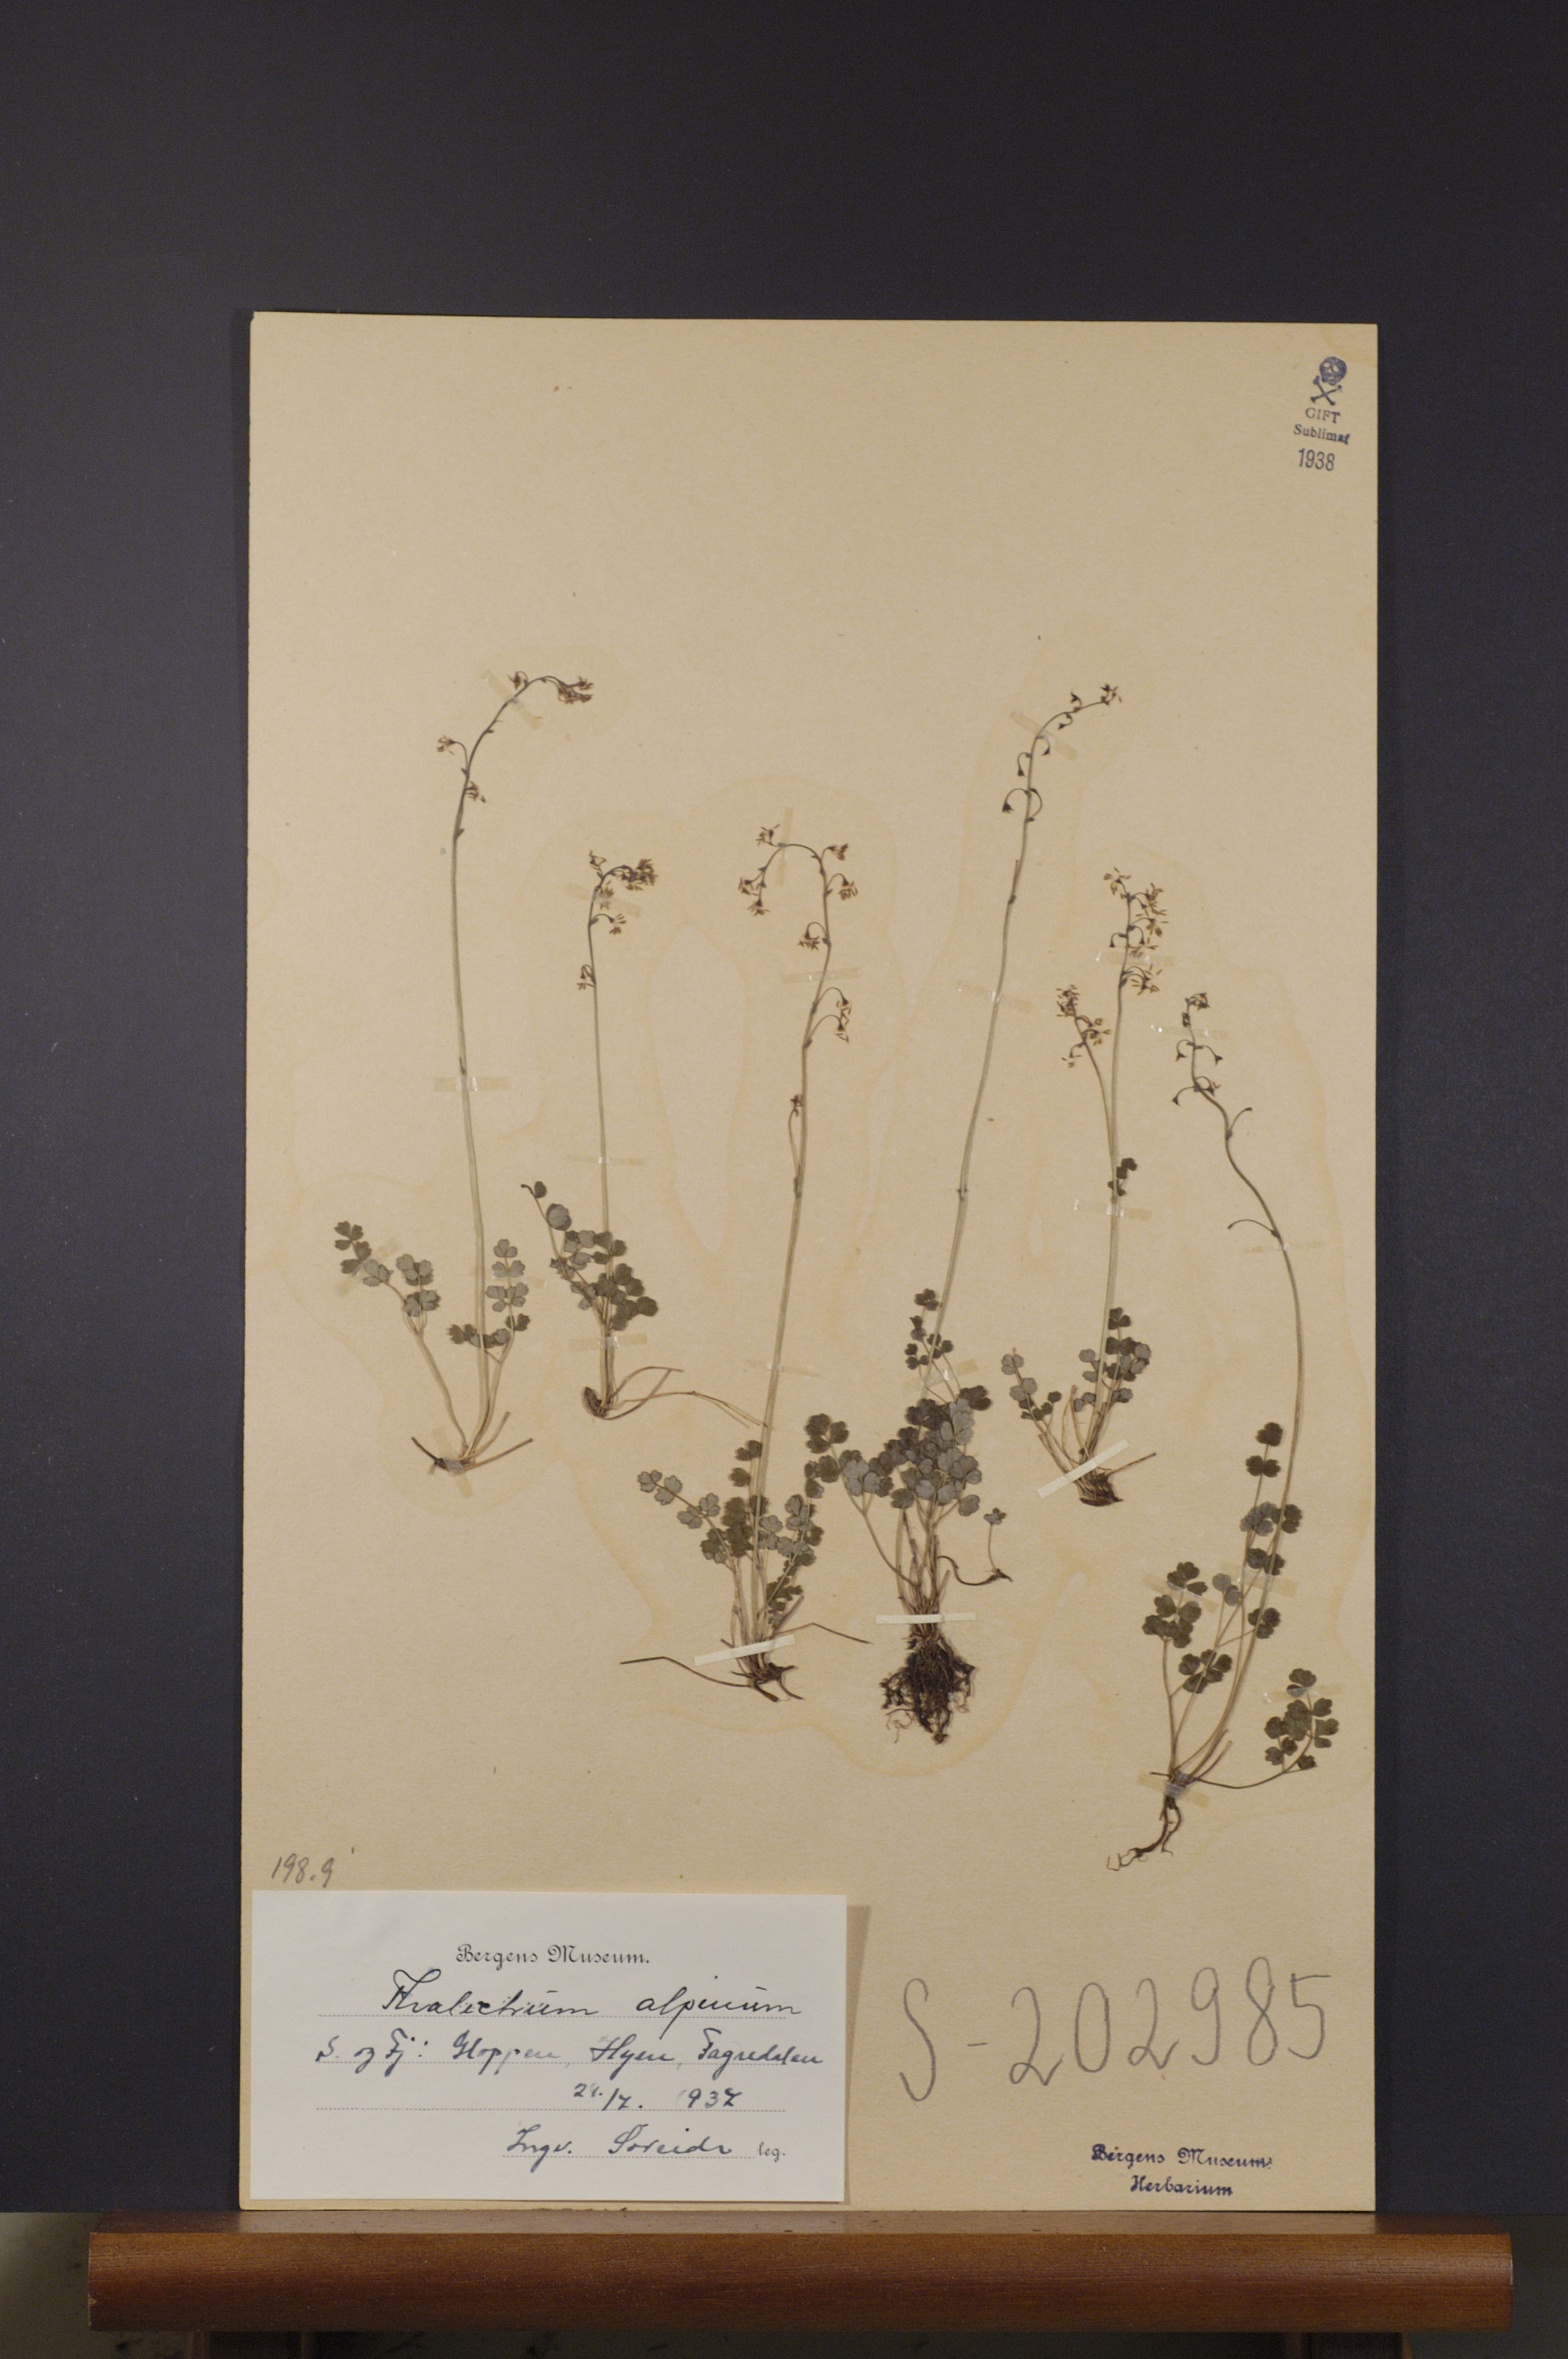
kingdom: Plantae
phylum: Tracheophyta
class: Magnoliopsida
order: Ranunculales
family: Ranunculaceae
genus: Thalictrum
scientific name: Thalictrum alpinum
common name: Alpine meadow-rue
